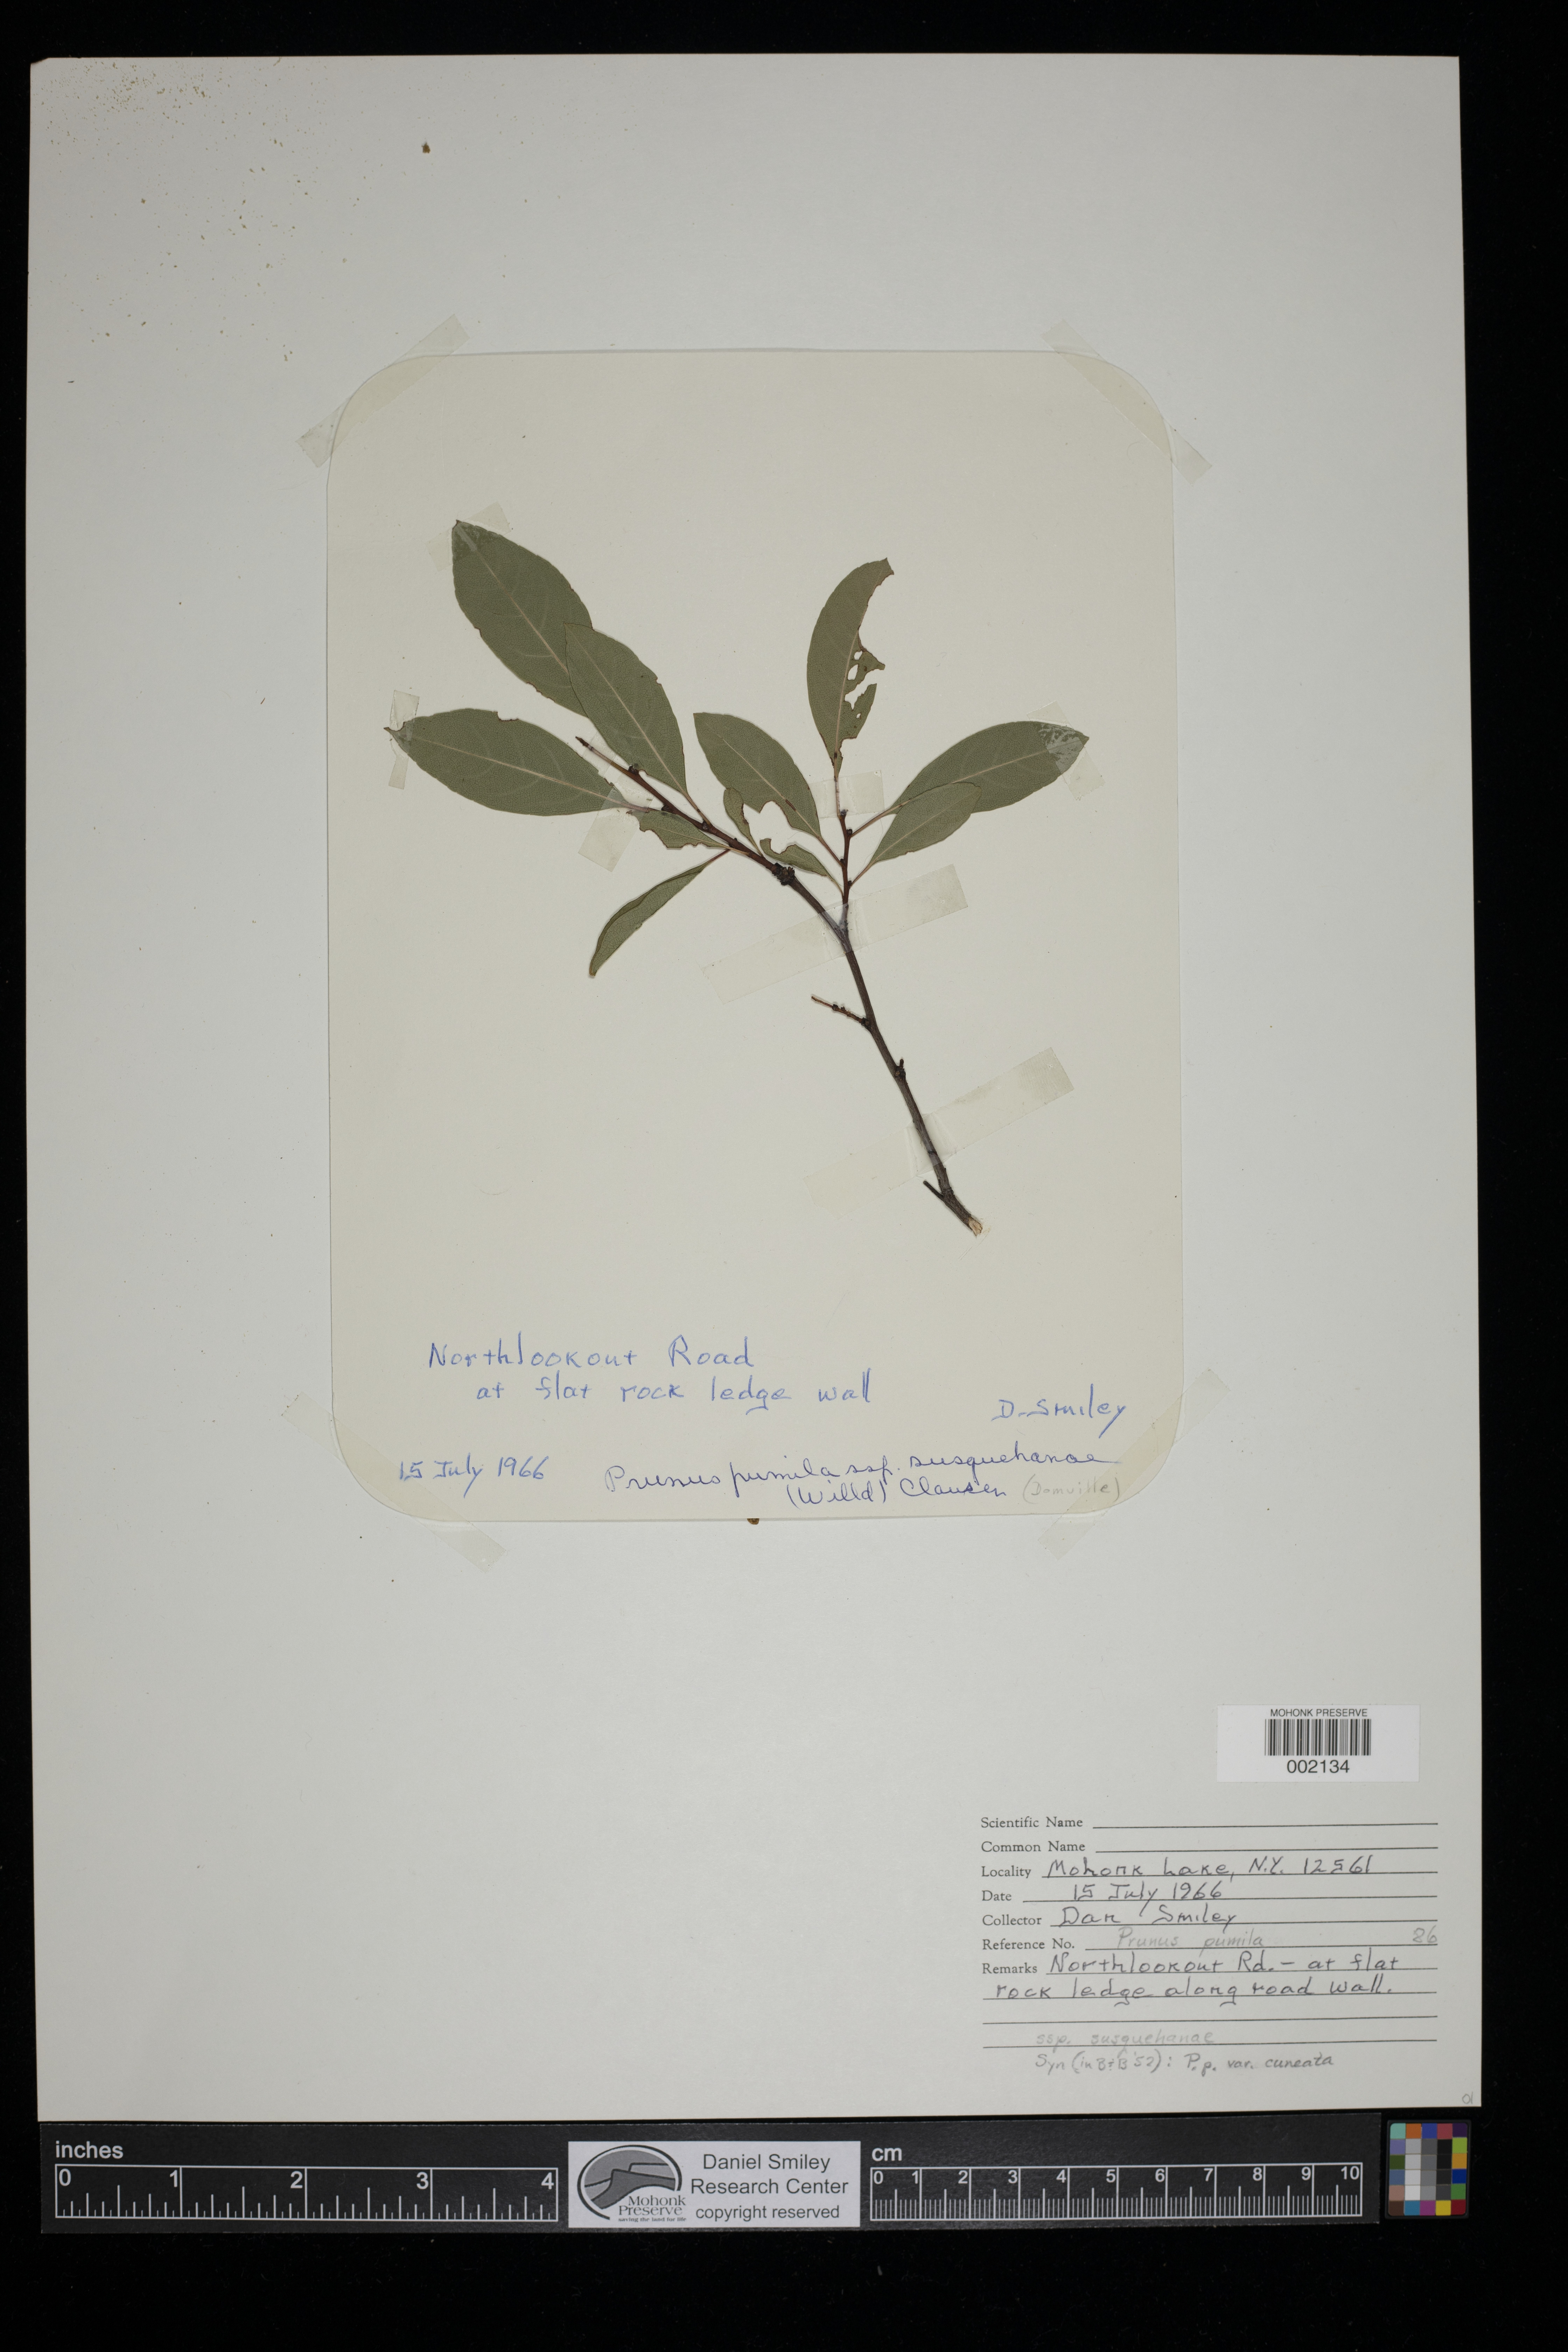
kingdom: Plantae
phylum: Tracheophyta
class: Magnoliopsida
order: Rosales
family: Rosaceae
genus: Prunus
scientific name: Prunus pumila
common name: Dwarf cherry
